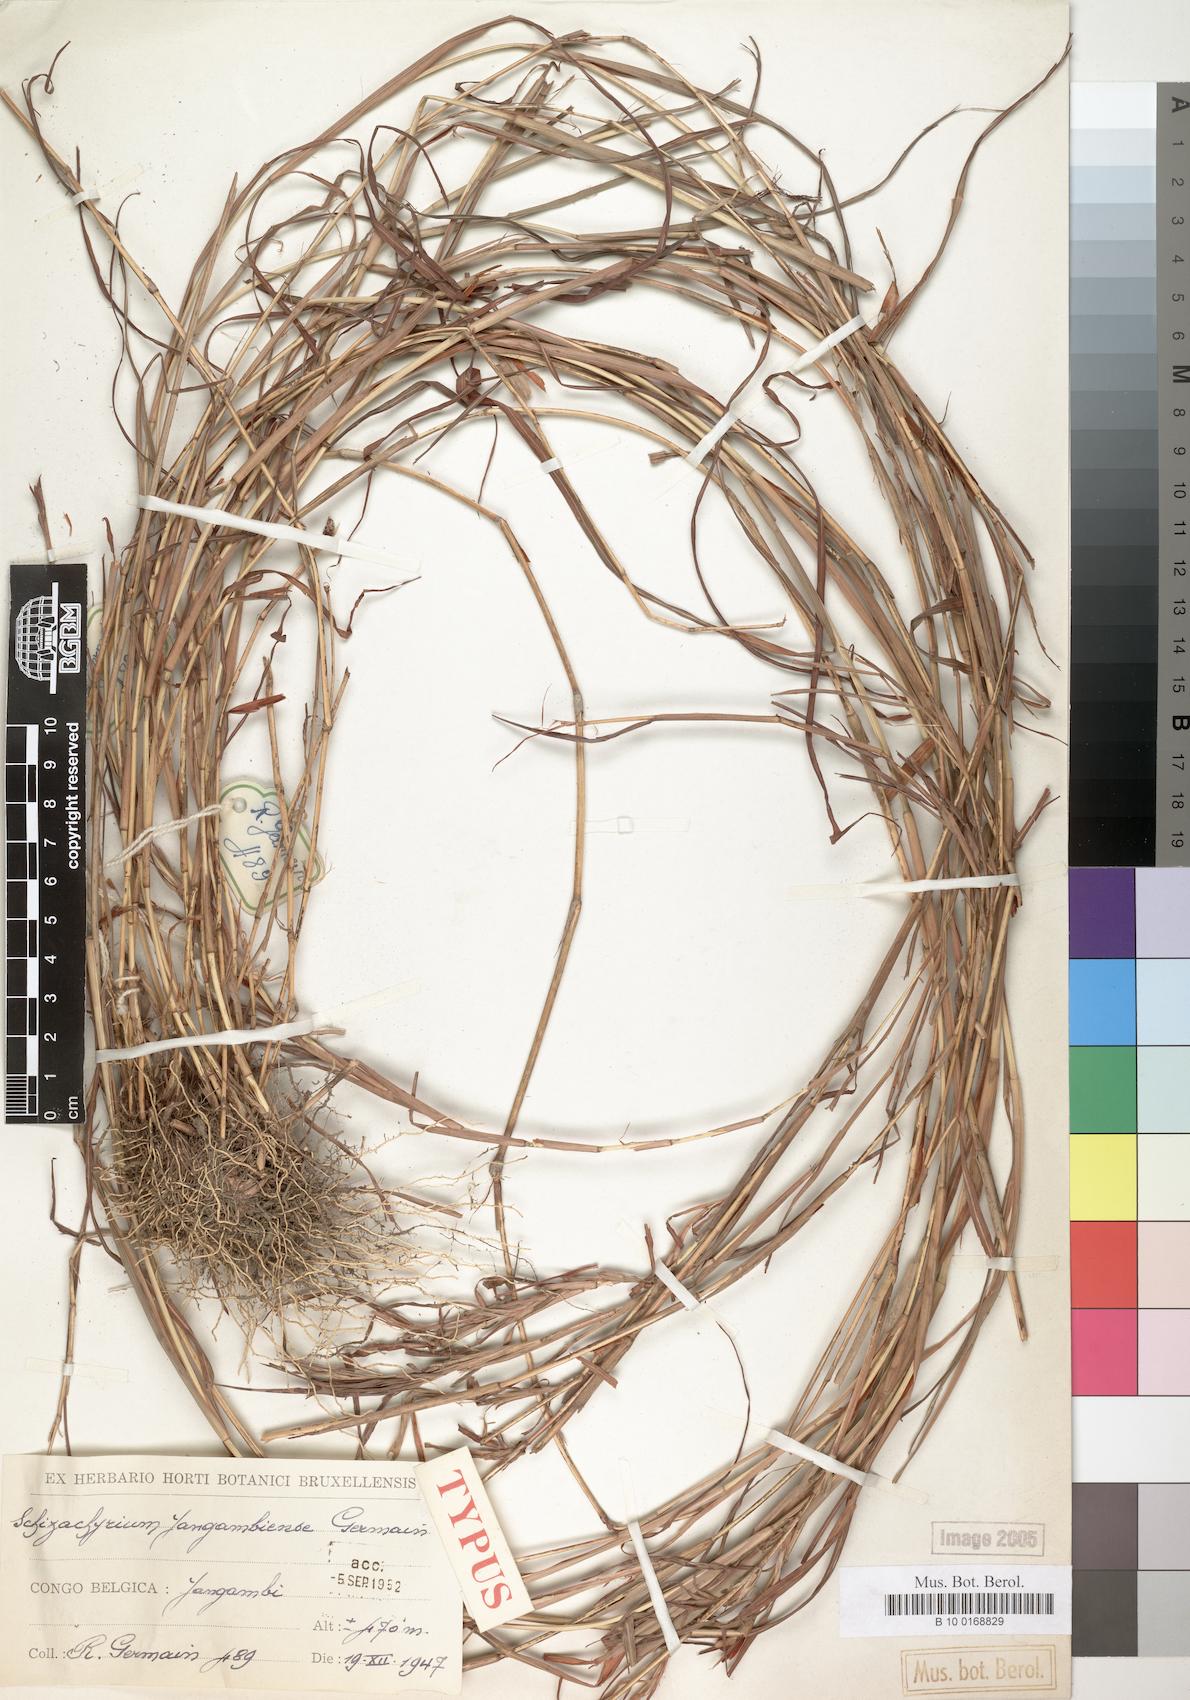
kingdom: Plantae
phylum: Tracheophyta
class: Liliopsida
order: Poales
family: Poaceae
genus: Schizachyrium
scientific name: Schizachyrium
